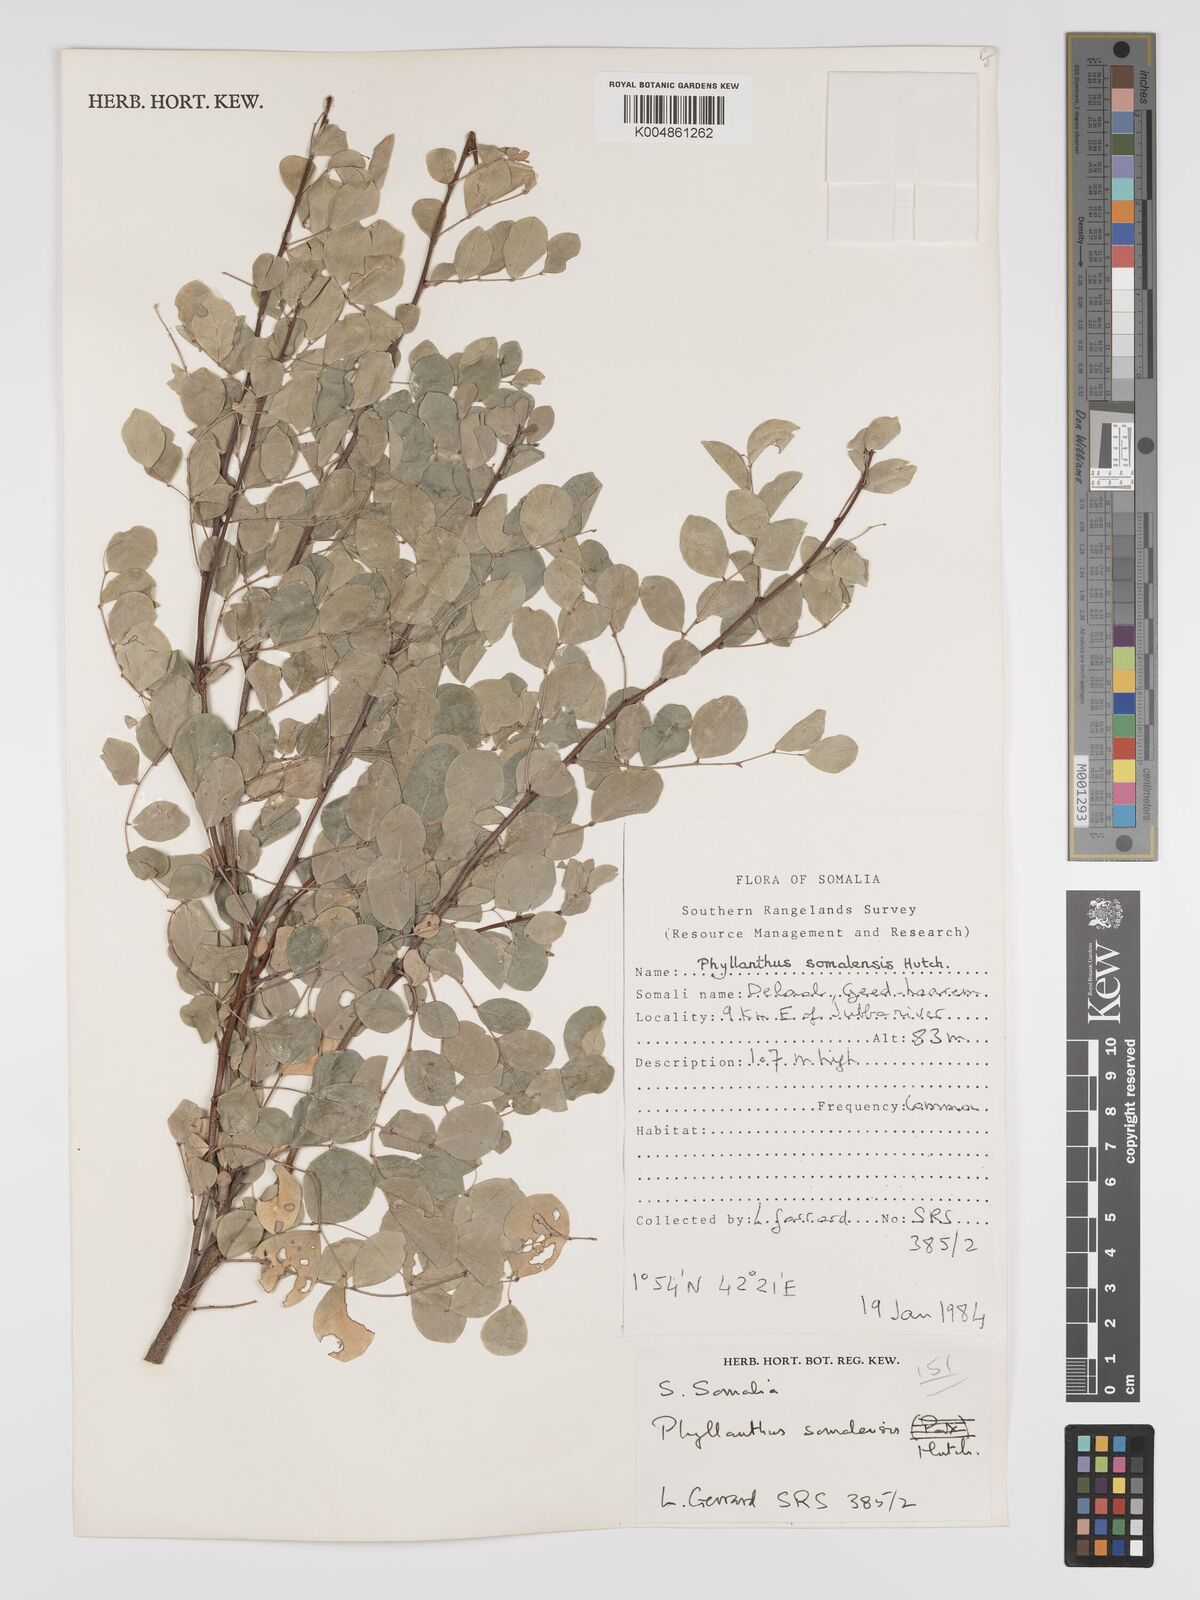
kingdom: Plantae
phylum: Tracheophyta
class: Magnoliopsida
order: Malpighiales
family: Phyllanthaceae
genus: Phyllanthus
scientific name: Phyllanthus somalensis
